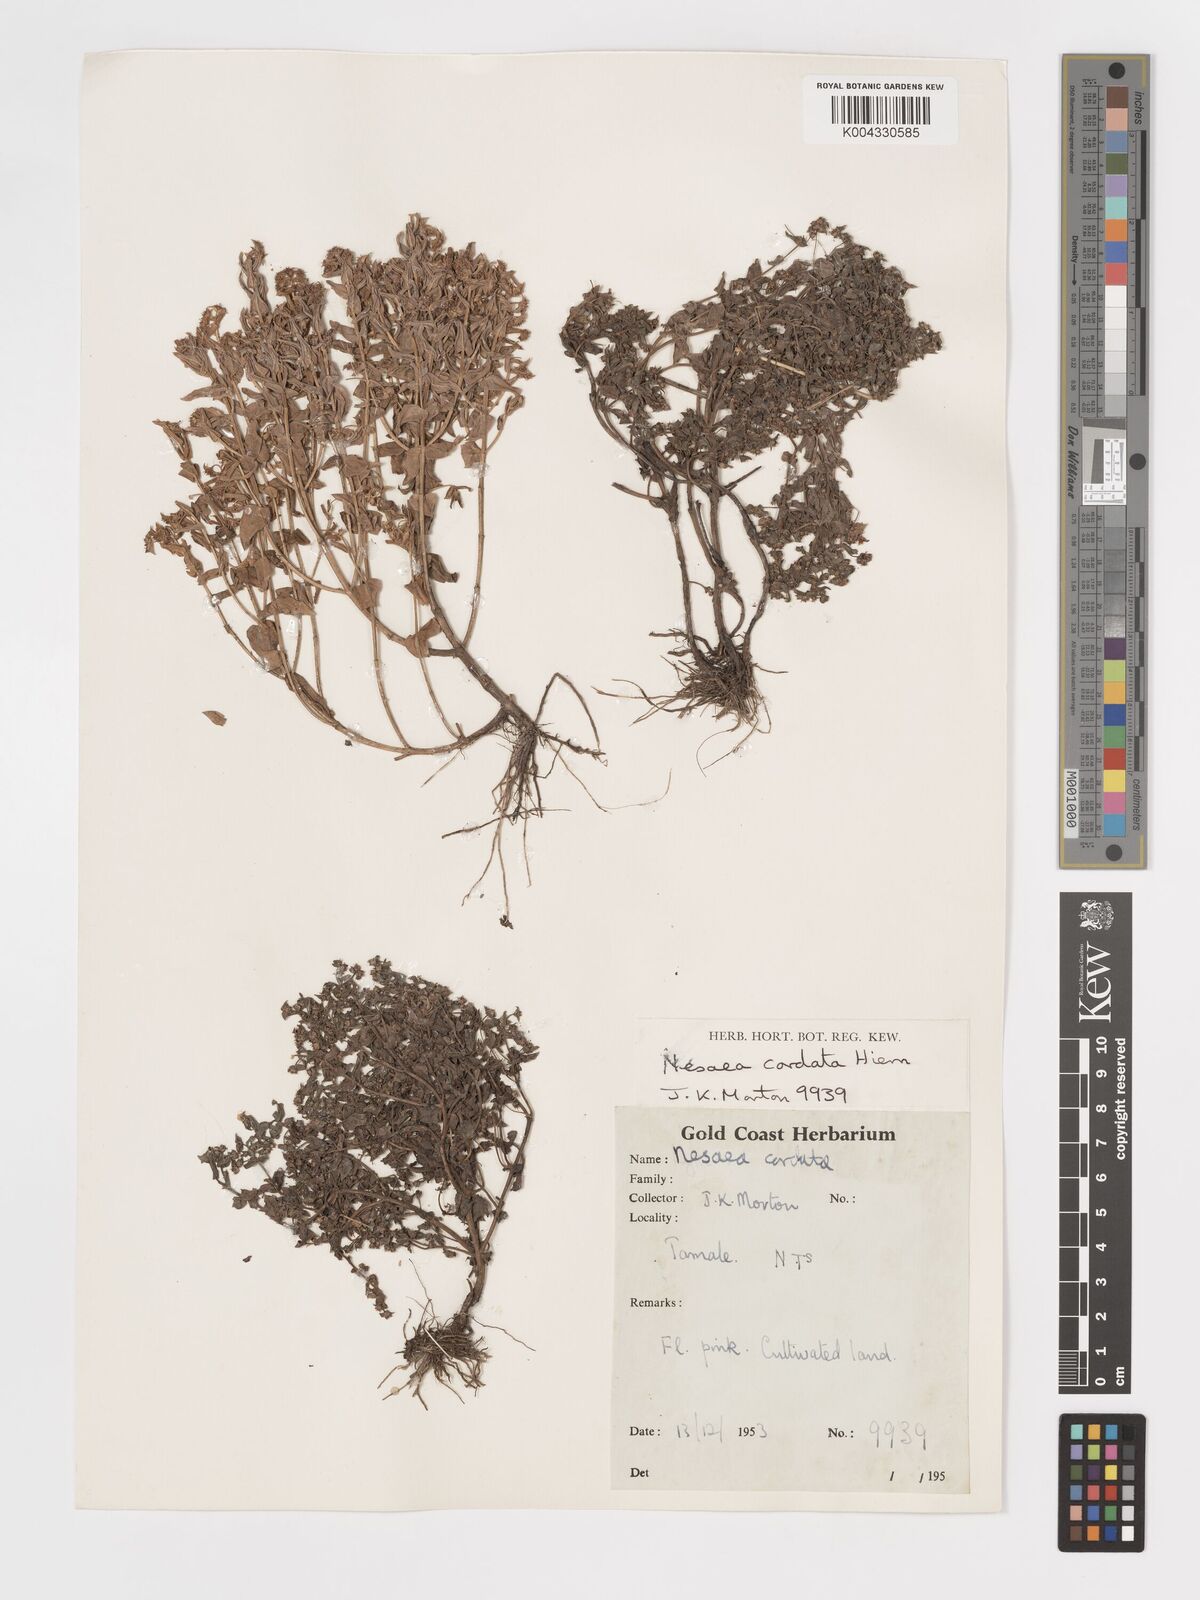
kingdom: Plantae
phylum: Tracheophyta
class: Magnoliopsida
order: Myrtales
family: Lythraceae
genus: Nesaea
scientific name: Nesaea
